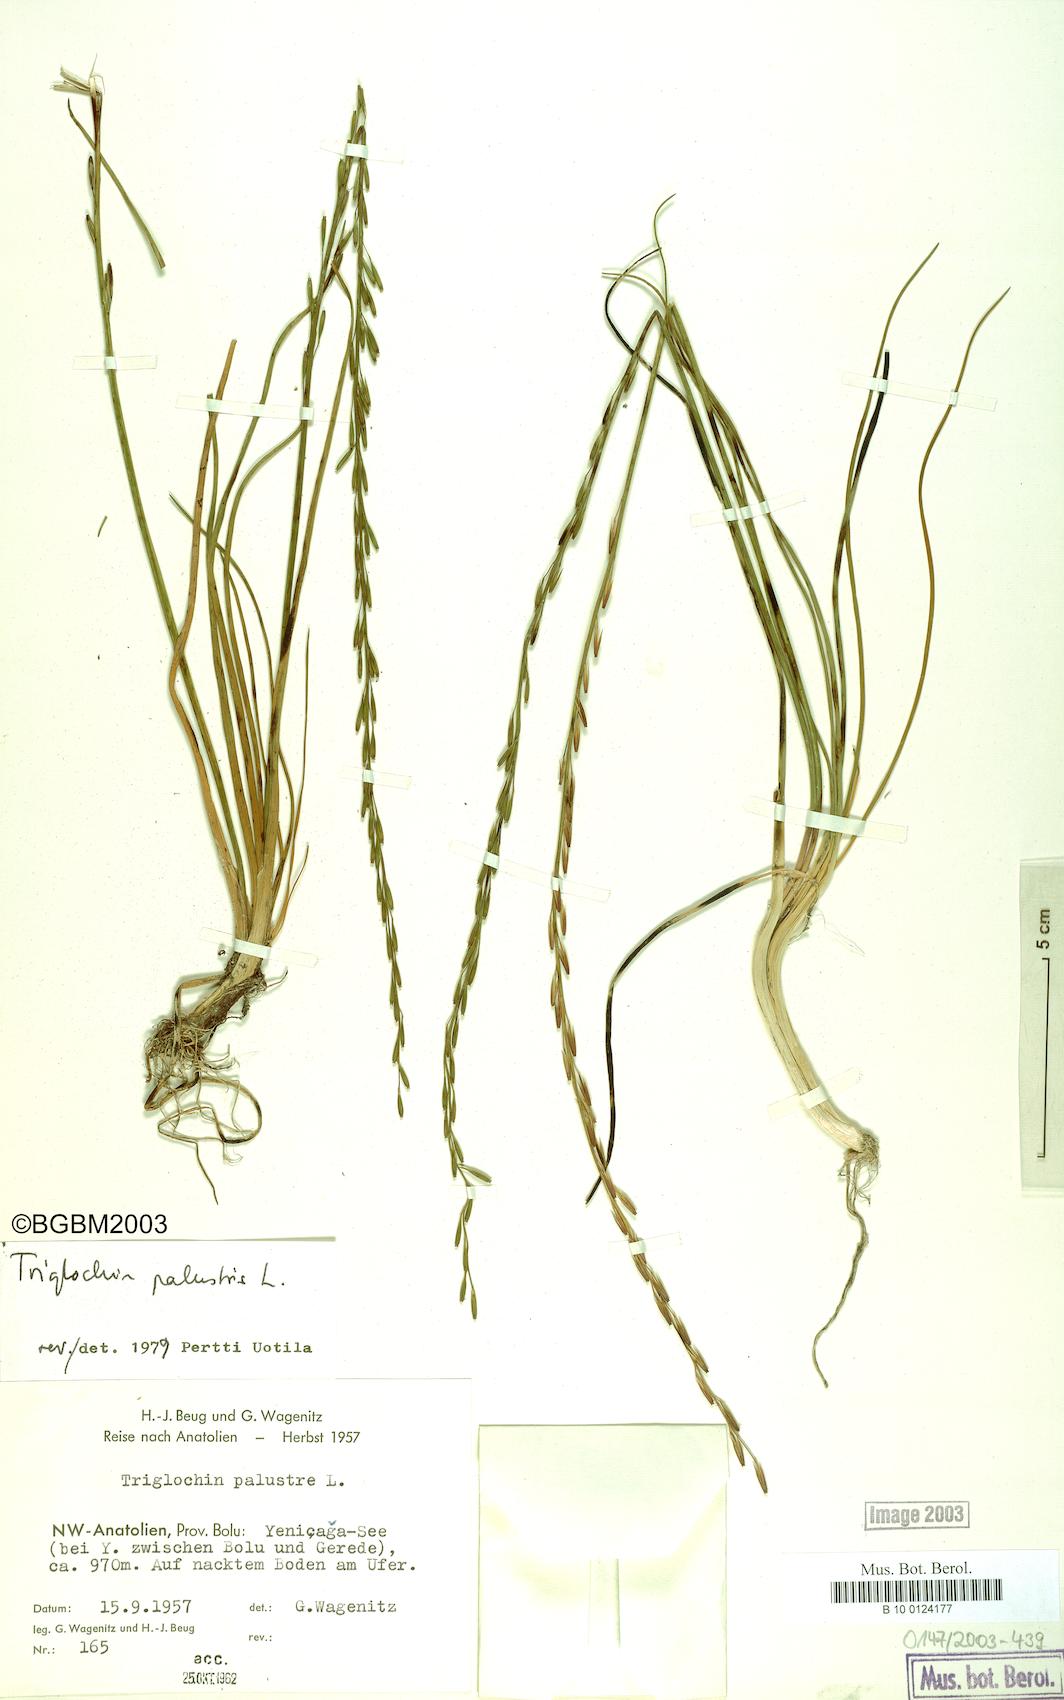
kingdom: Plantae
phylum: Tracheophyta
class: Liliopsida
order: Alismatales
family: Juncaginaceae
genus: Triglochin
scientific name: Triglochin palustris
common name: Marsh arrowgrass
